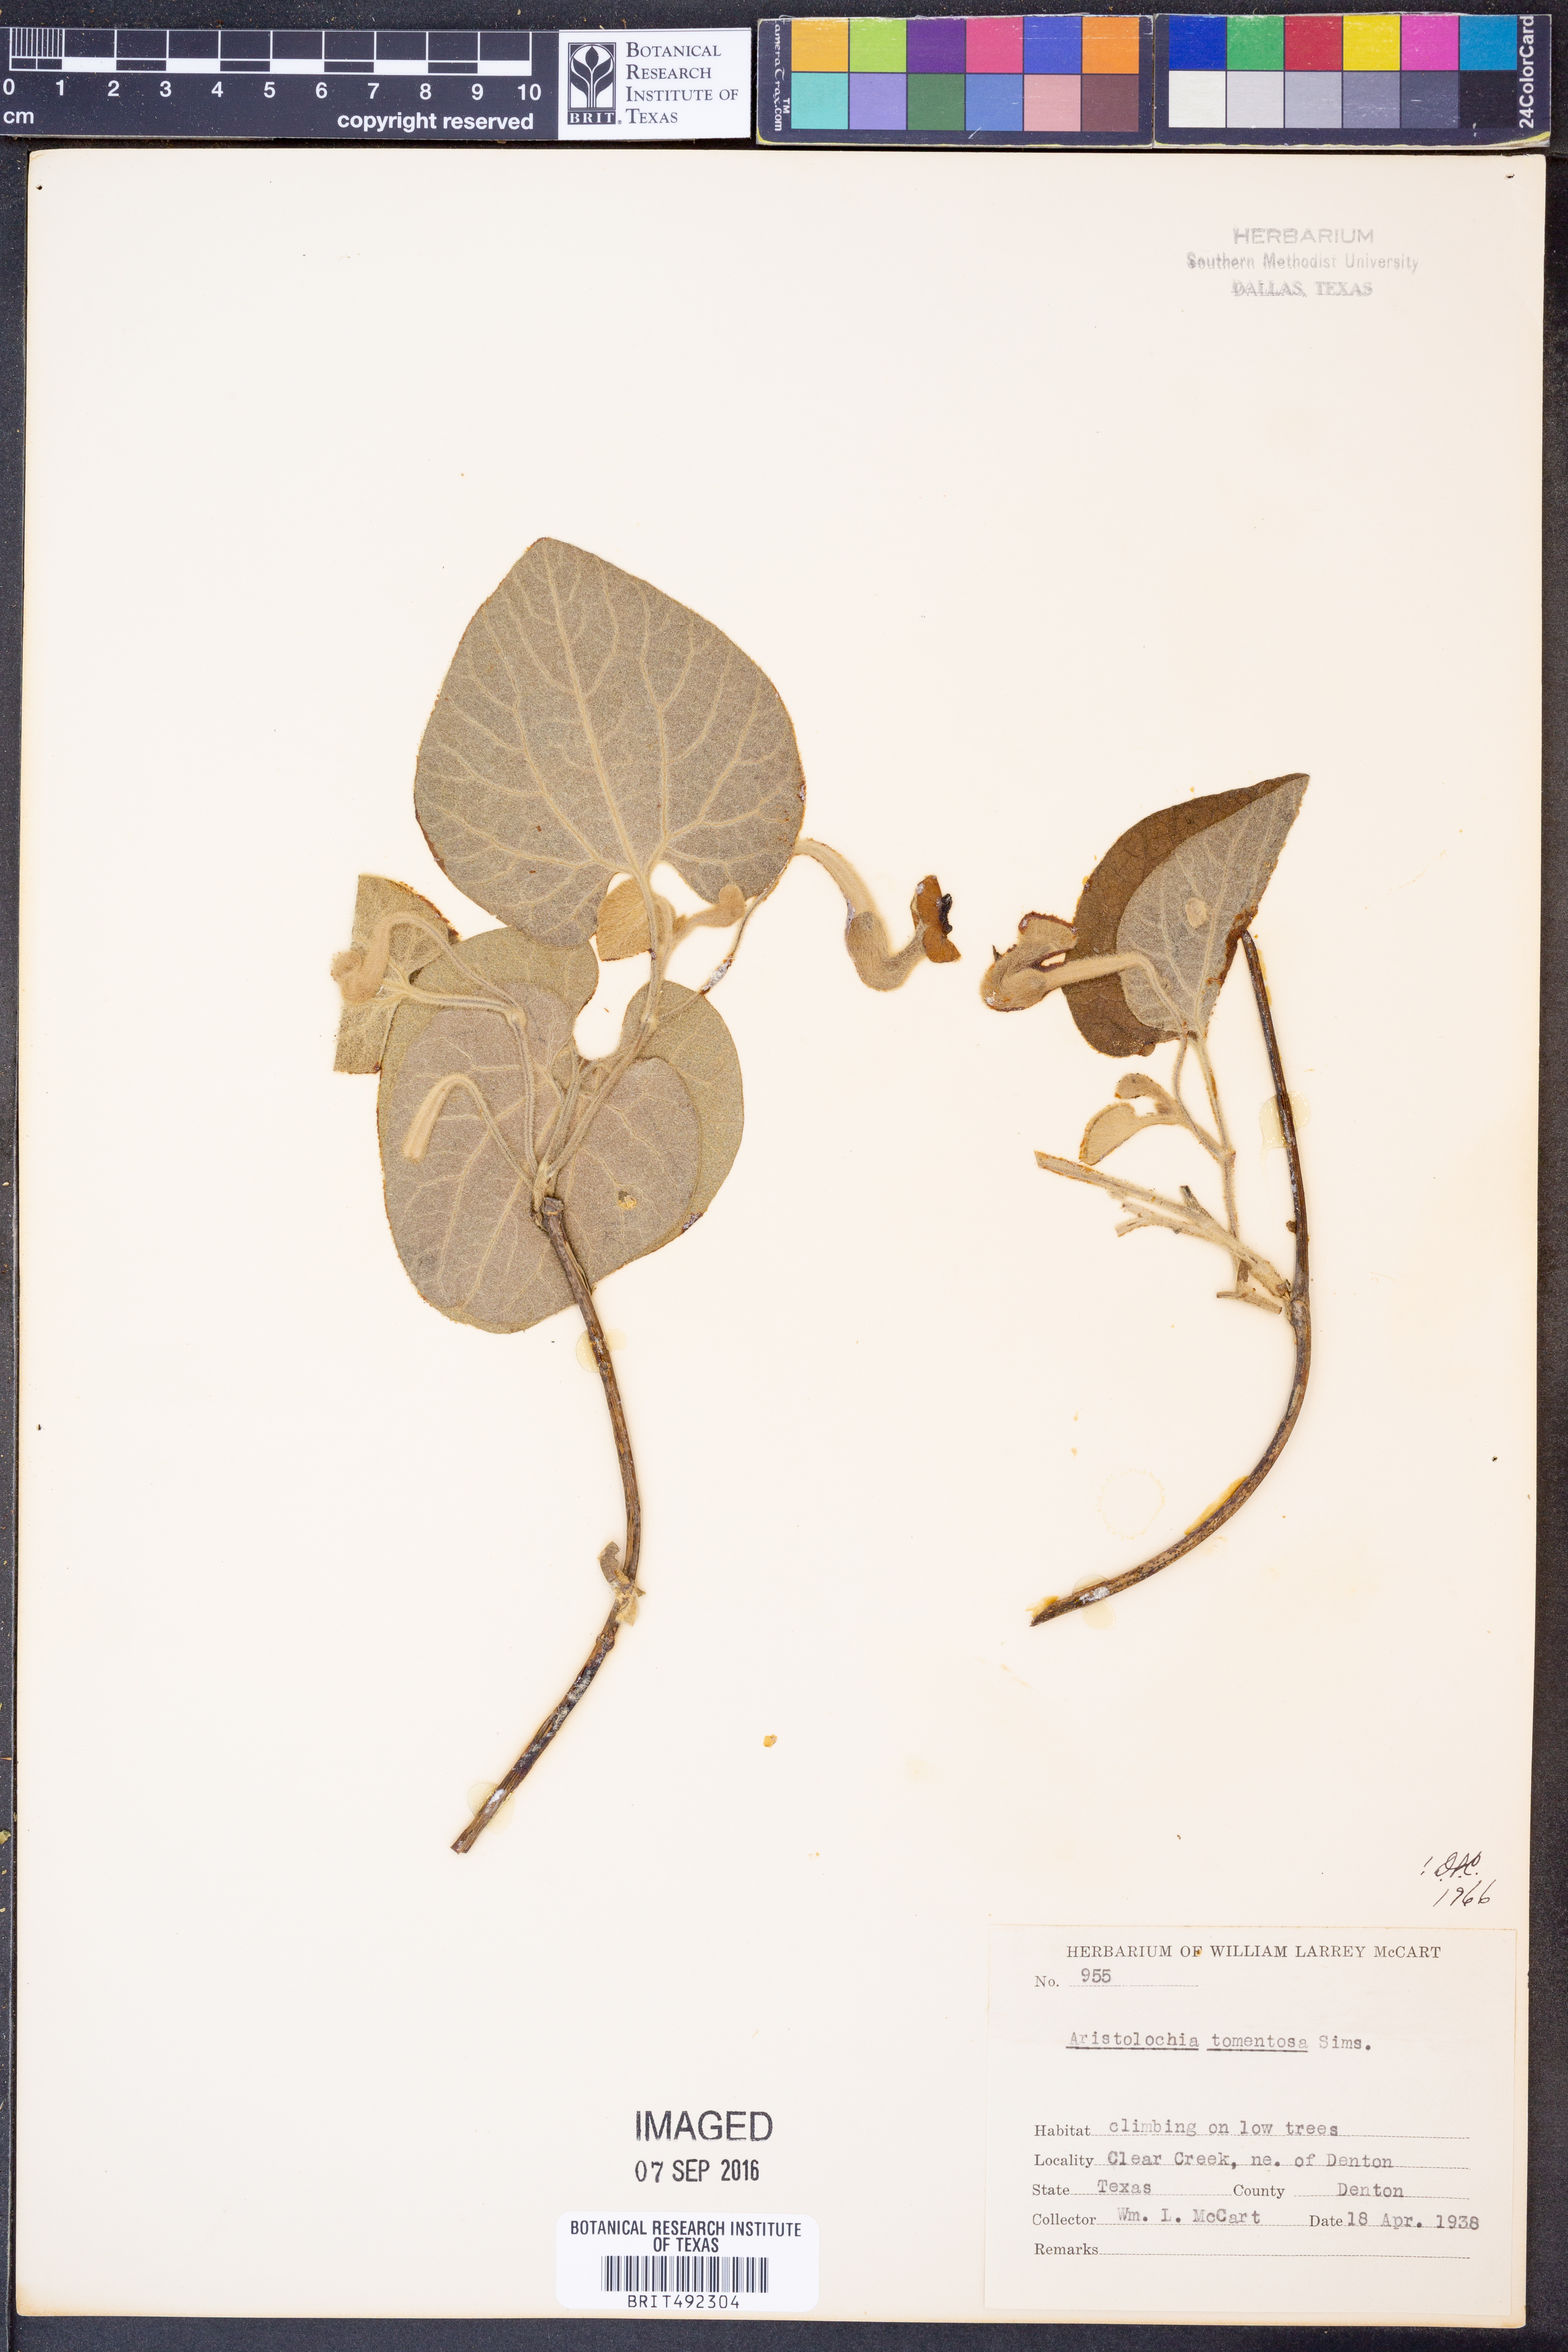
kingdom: Plantae
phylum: Tracheophyta
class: Magnoliopsida
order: Piperales
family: Aristolochiaceae
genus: Isotrema
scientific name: Isotrema tomentosum
